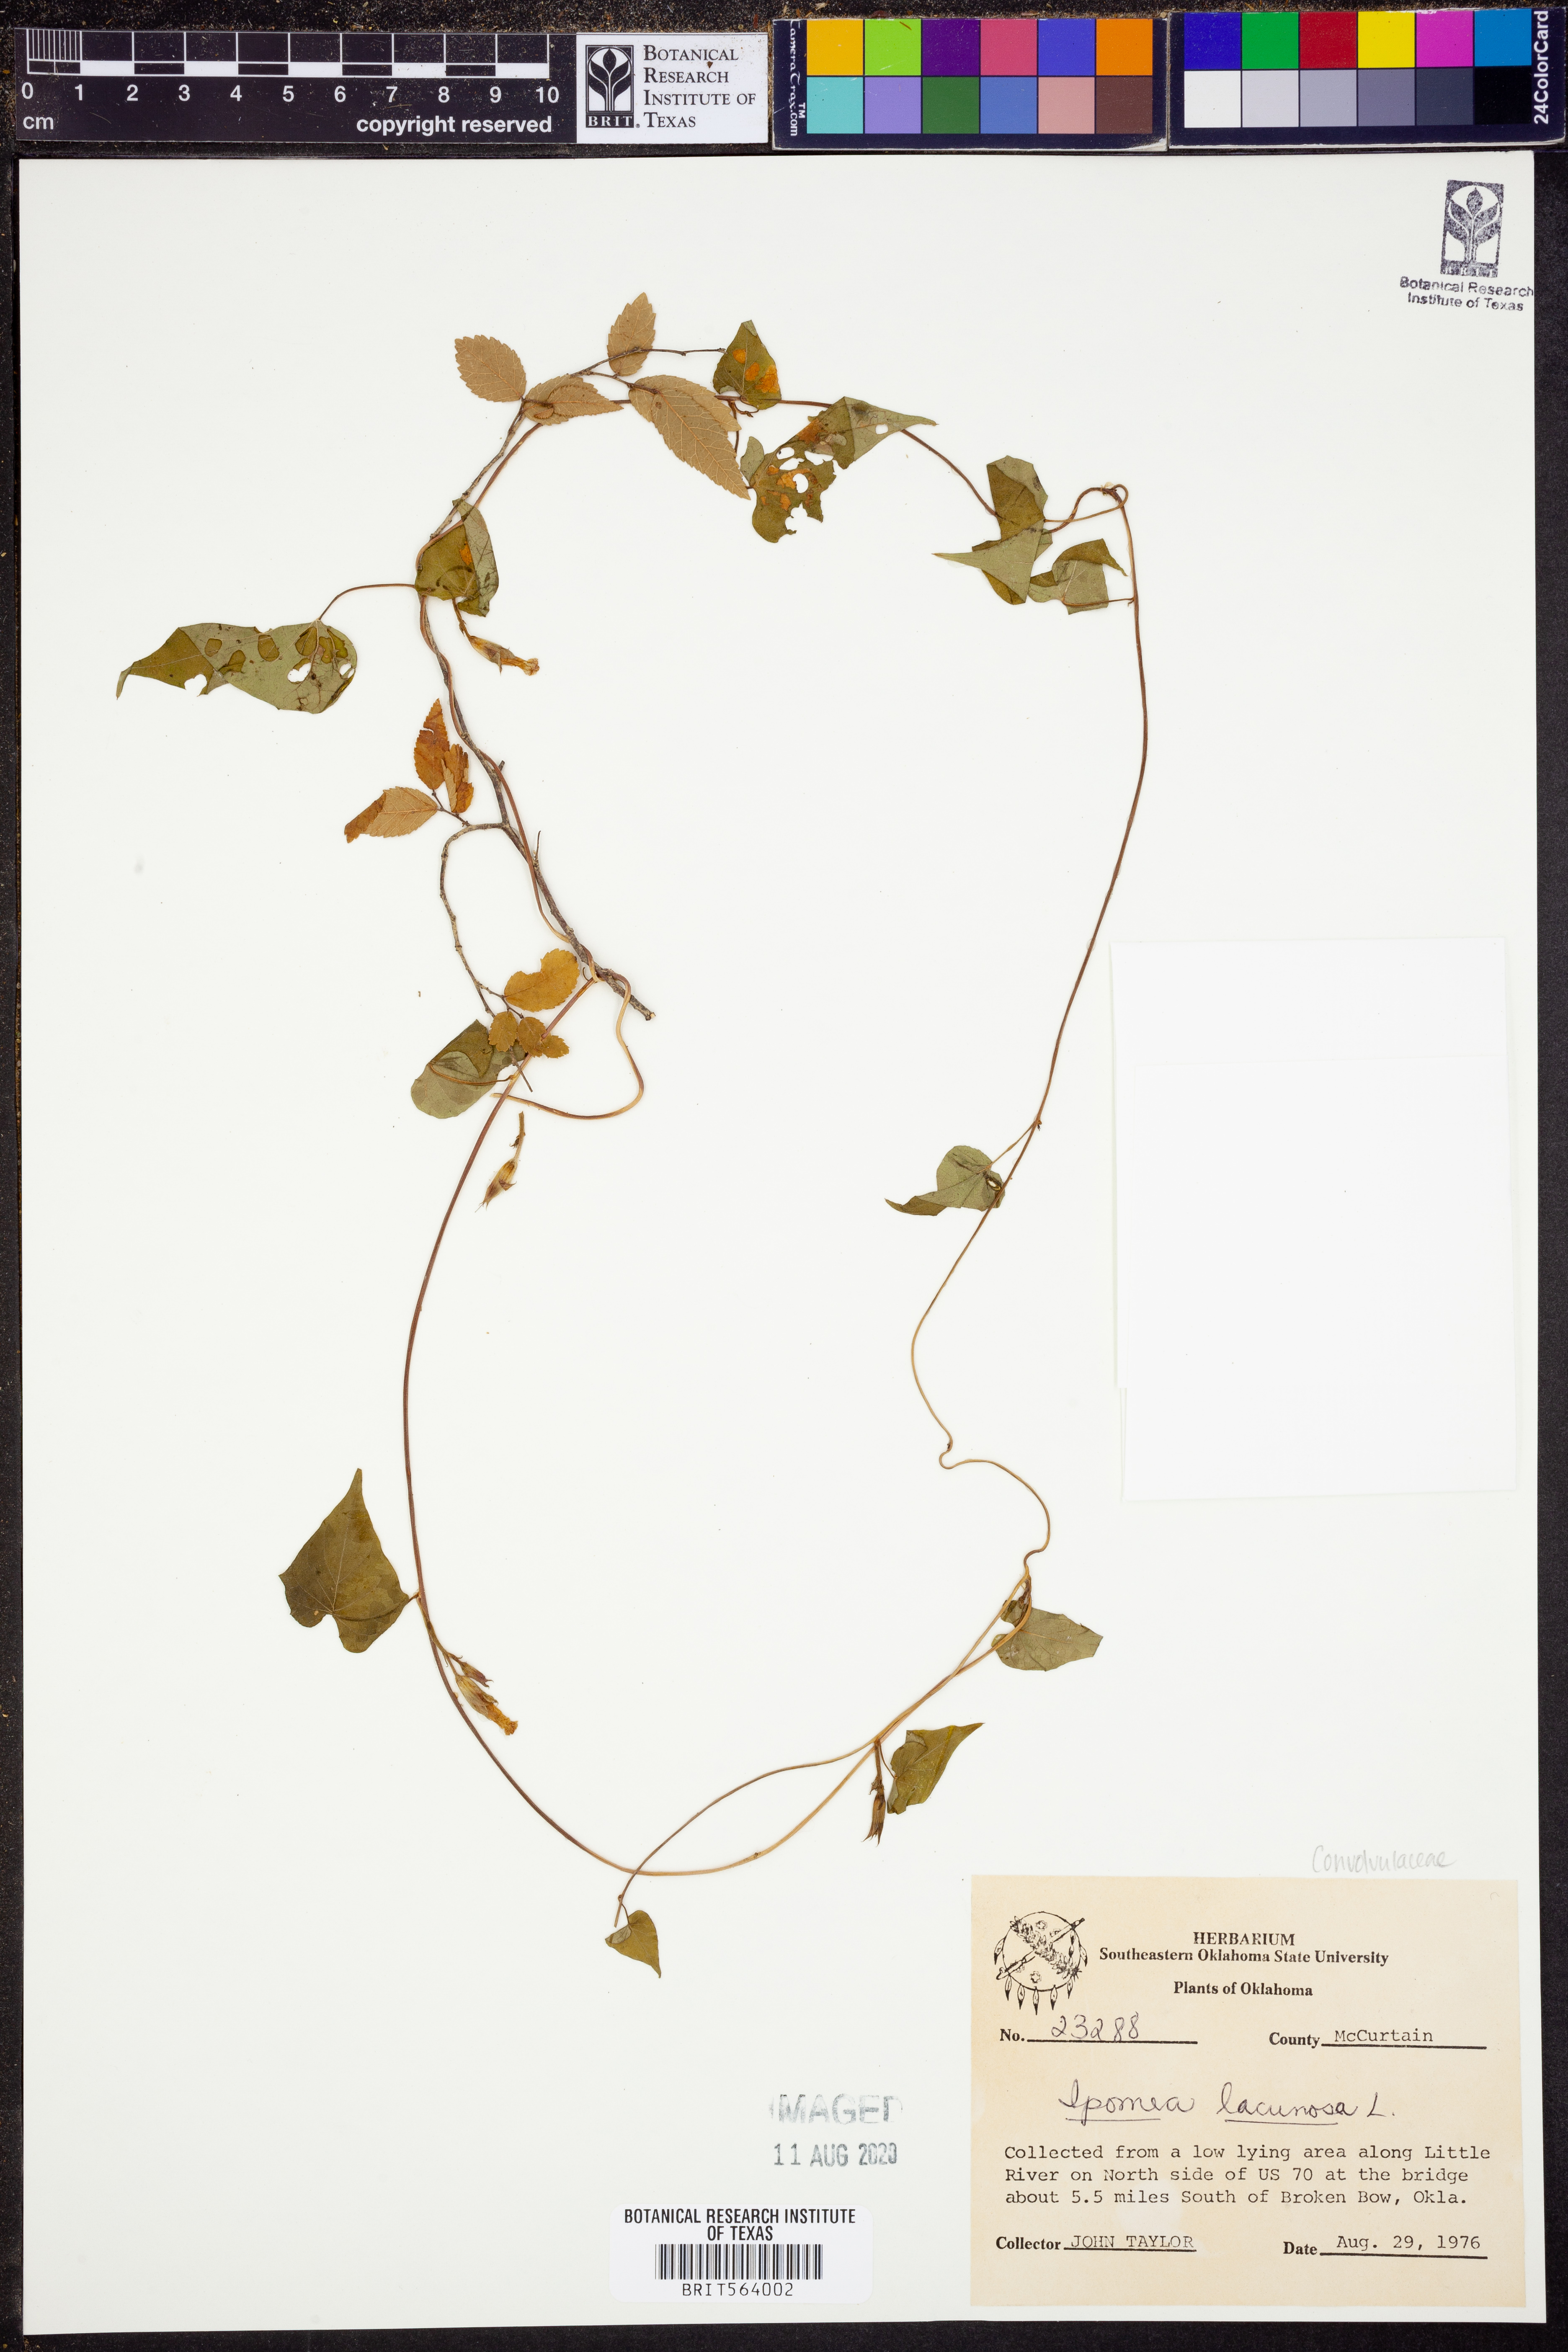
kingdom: Plantae
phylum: Tracheophyta
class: Magnoliopsida
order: Solanales
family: Convolvulaceae
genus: Ipomoea
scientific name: Ipomoea lacunosa
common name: White morning-glory
